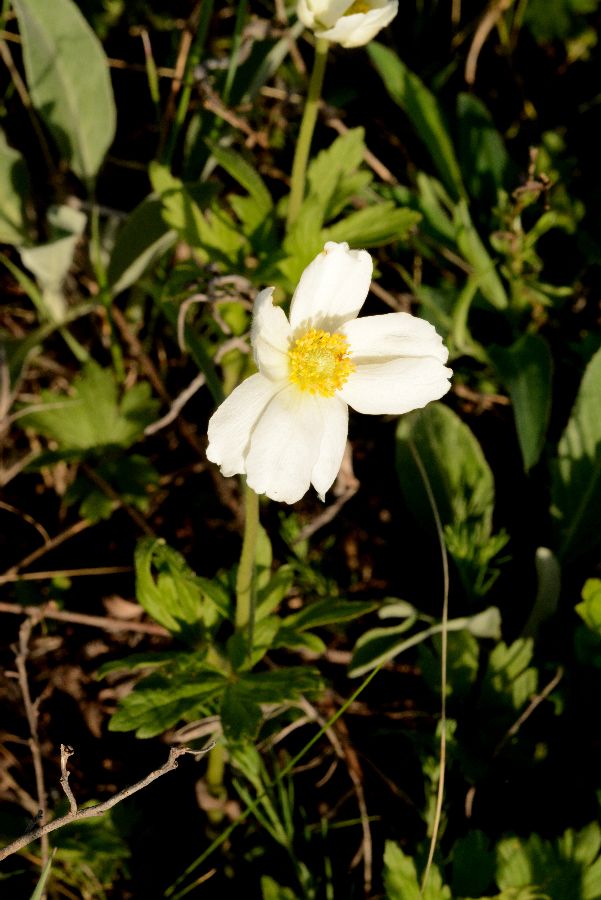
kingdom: Plantae
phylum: Tracheophyta
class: Magnoliopsida
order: Ranunculales
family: Ranunculaceae
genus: Anemone
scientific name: Anemone sylvestris
